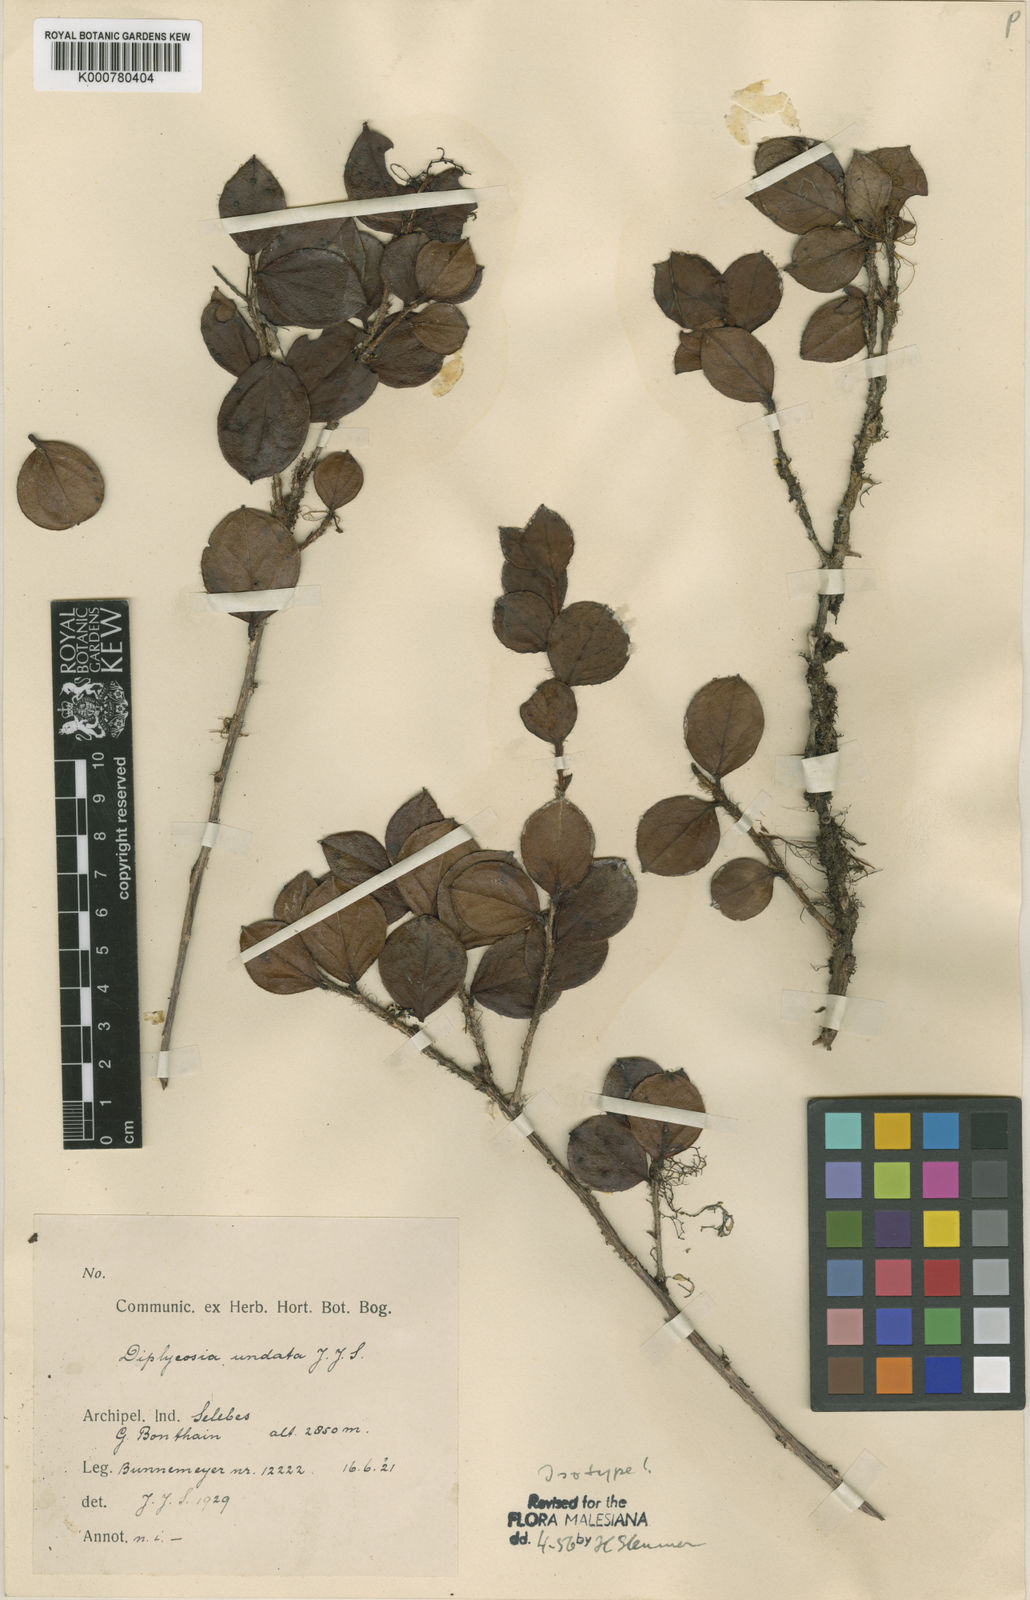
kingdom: Plantae
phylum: Tracheophyta
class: Magnoliopsida
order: Ericales
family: Ericaceae
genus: Gaultheria
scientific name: Gaultheria undata
